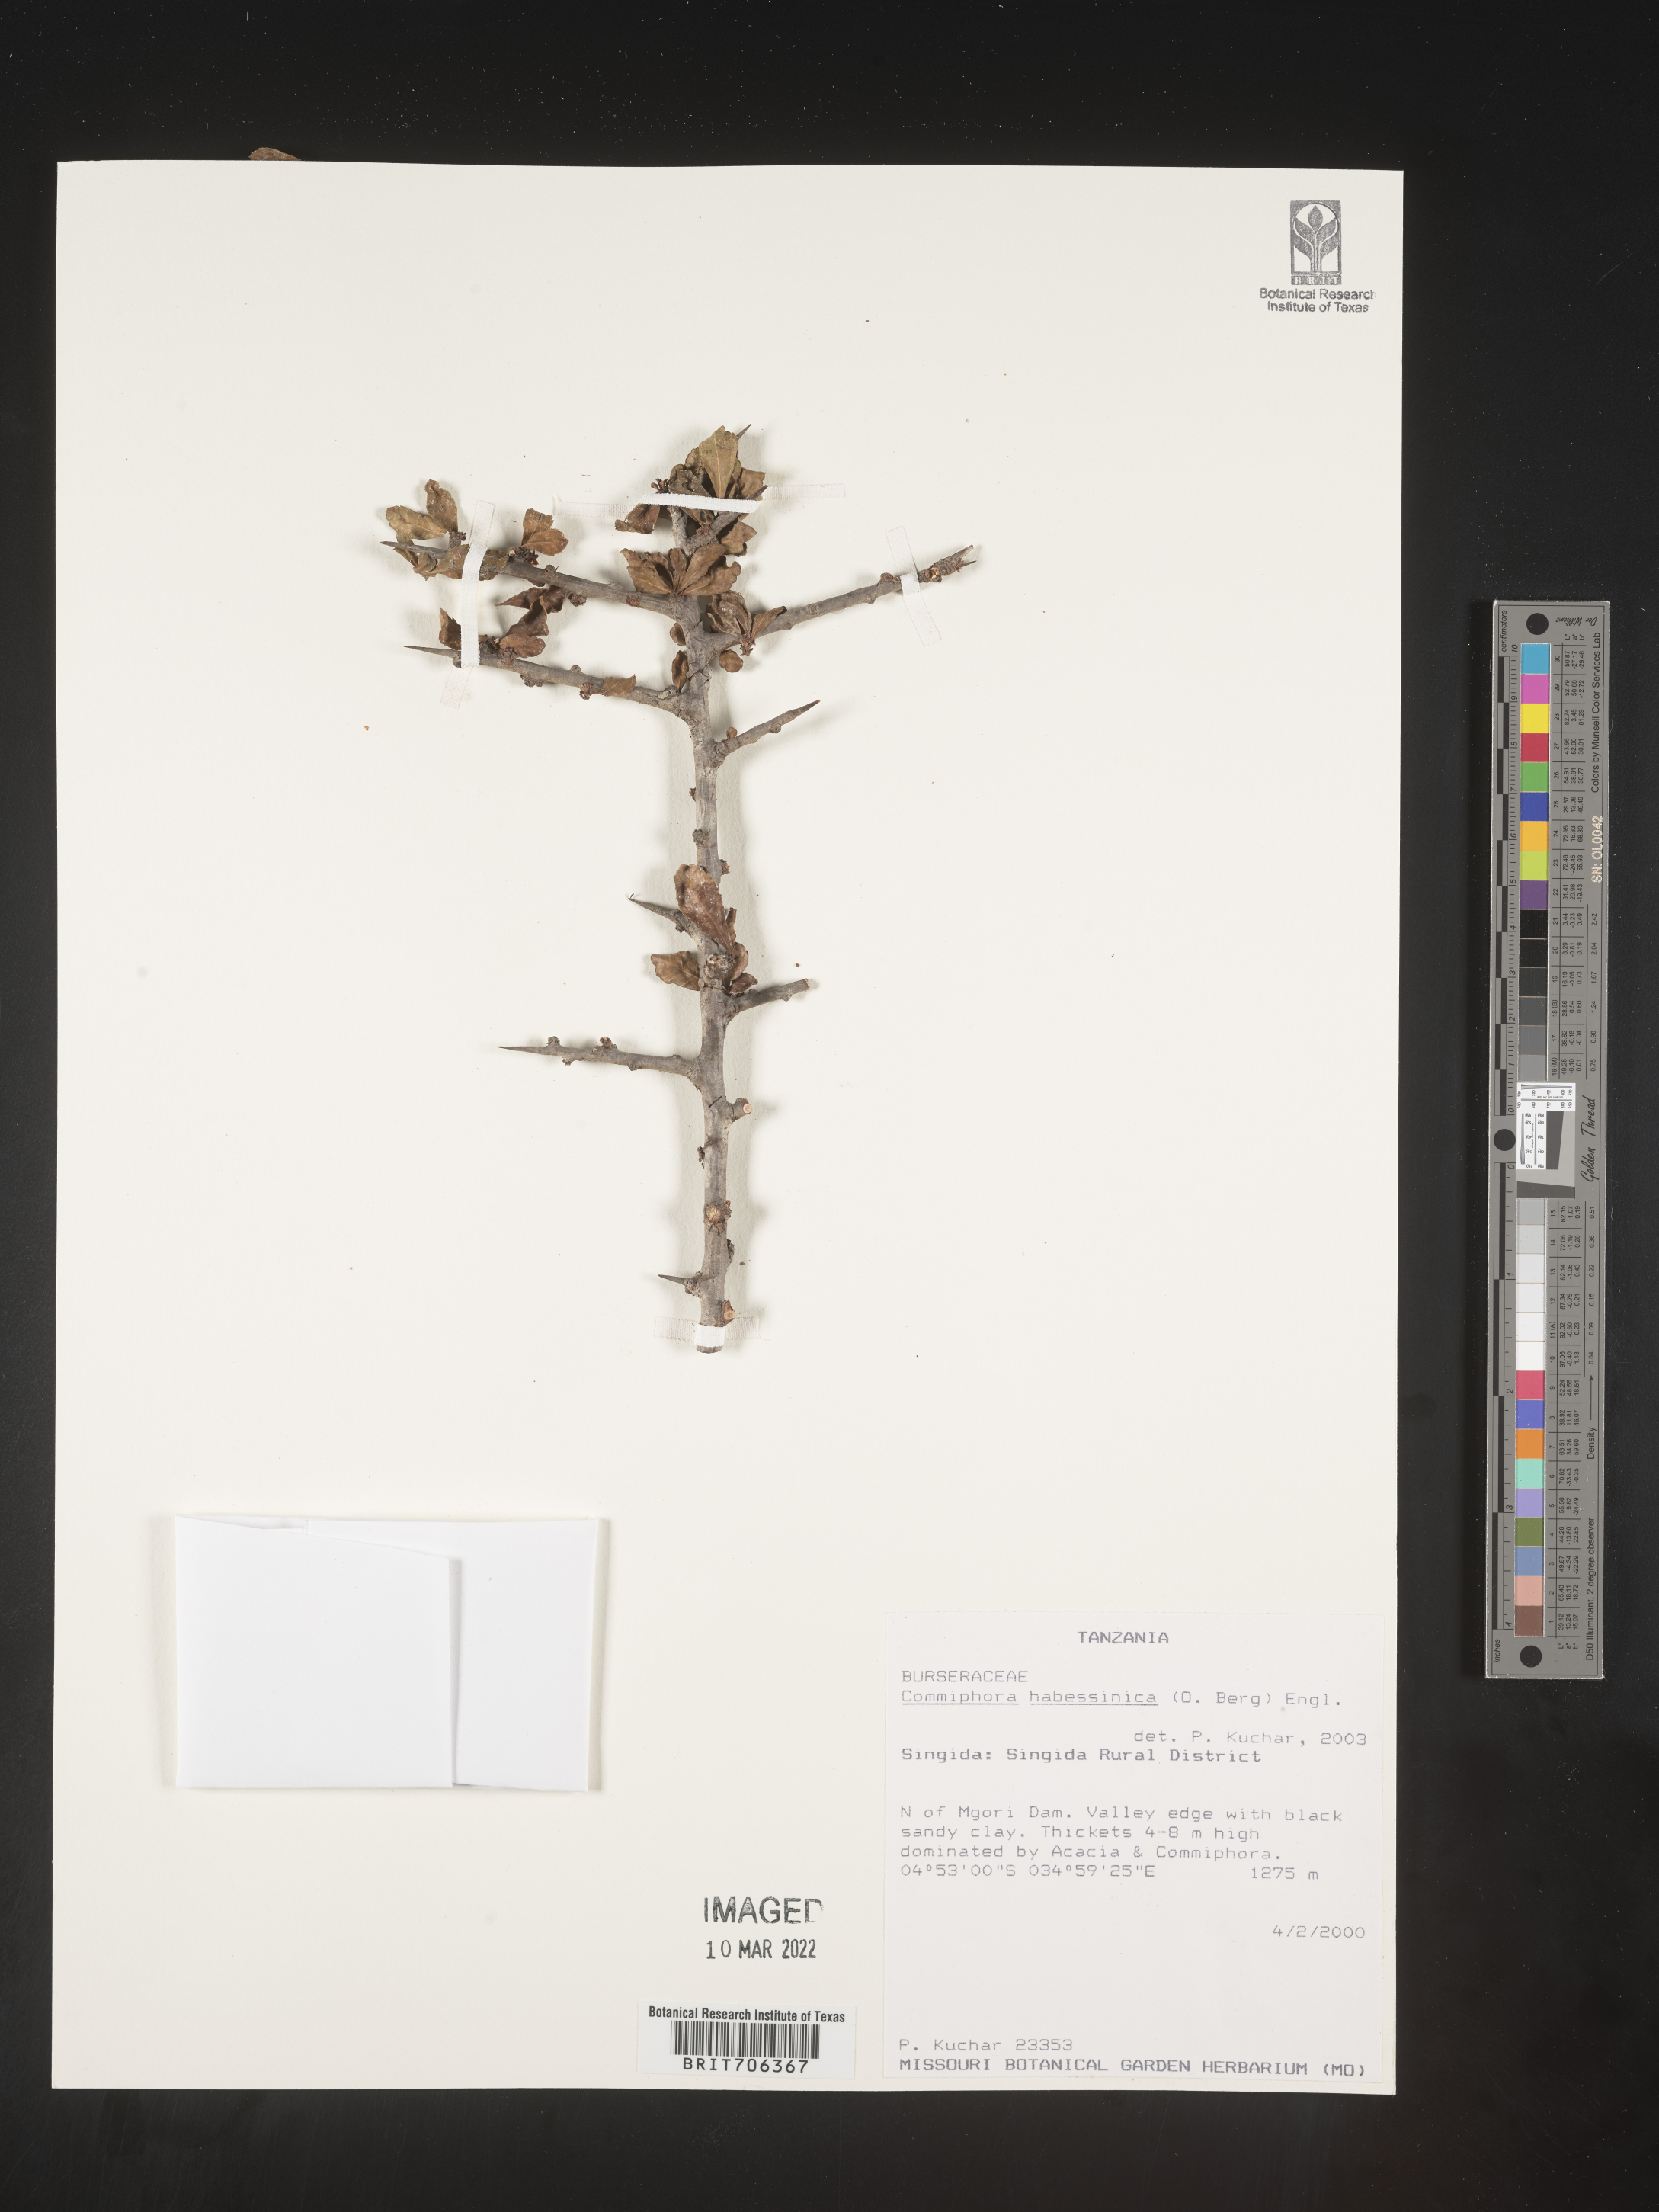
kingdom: Plantae
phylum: Tracheophyta
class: Magnoliopsida
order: Sapindales
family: Burseraceae
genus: Commiphora
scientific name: Commiphora
